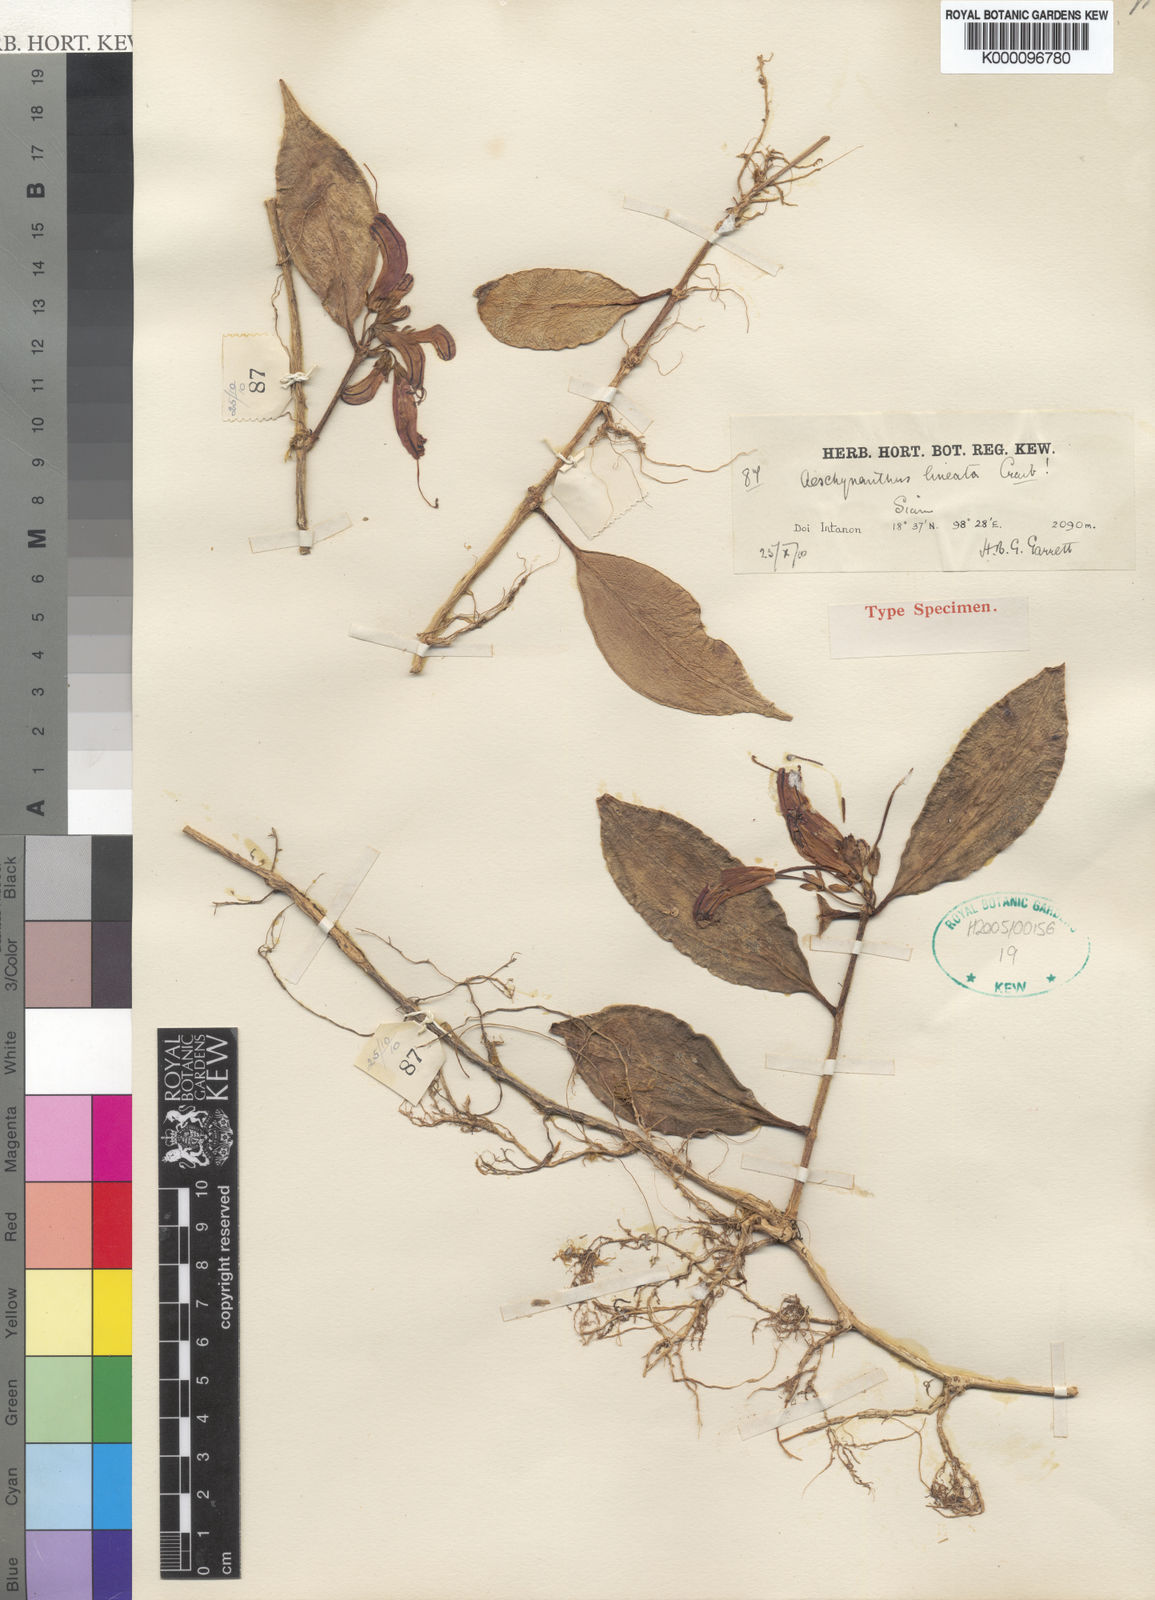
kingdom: Plantae
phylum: Tracheophyta
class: Magnoliopsida
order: Lamiales
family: Gesneriaceae
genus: Aeschynanthus
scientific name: Aeschynanthus lineatus
